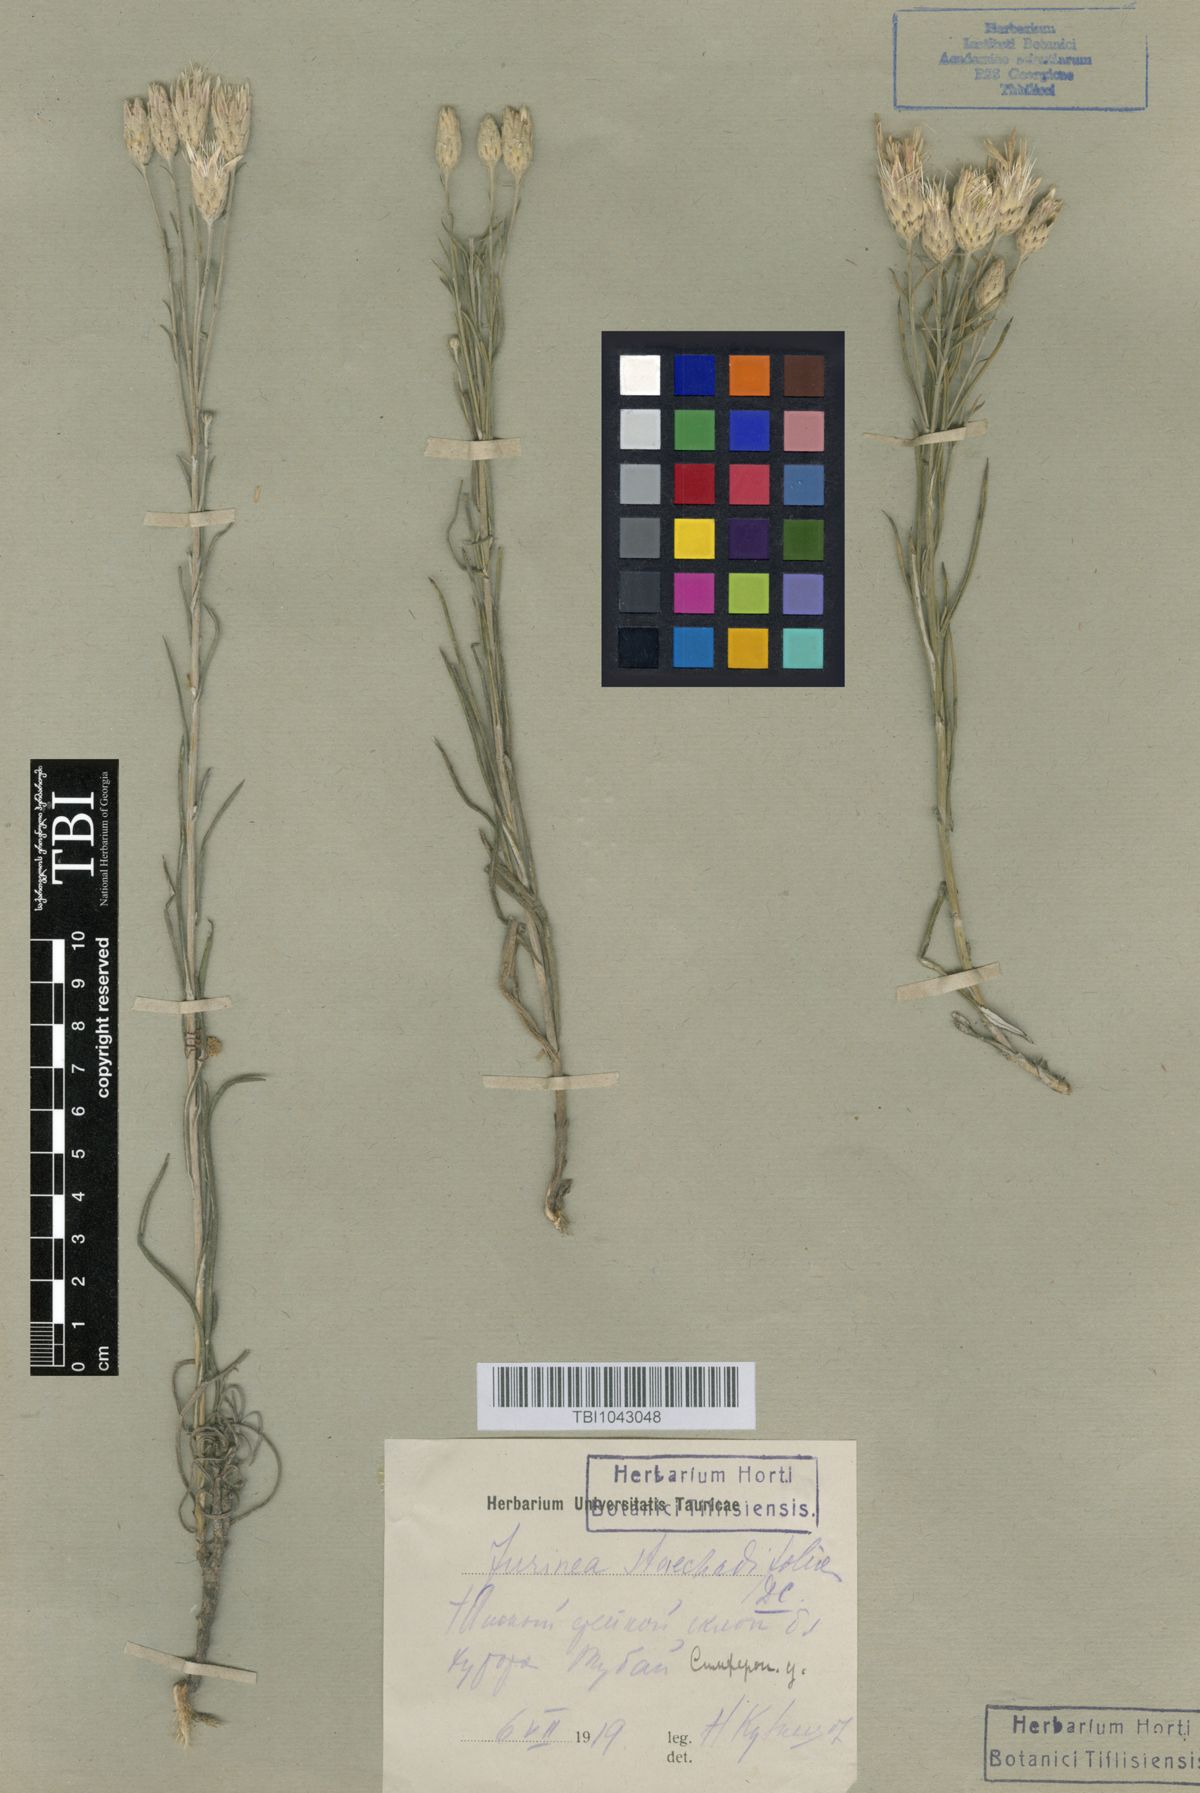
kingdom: Plantae
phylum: Tracheophyta
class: Magnoliopsida
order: Asterales
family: Asteraceae
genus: Jurinea
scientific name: Jurinea stoechadifolia
